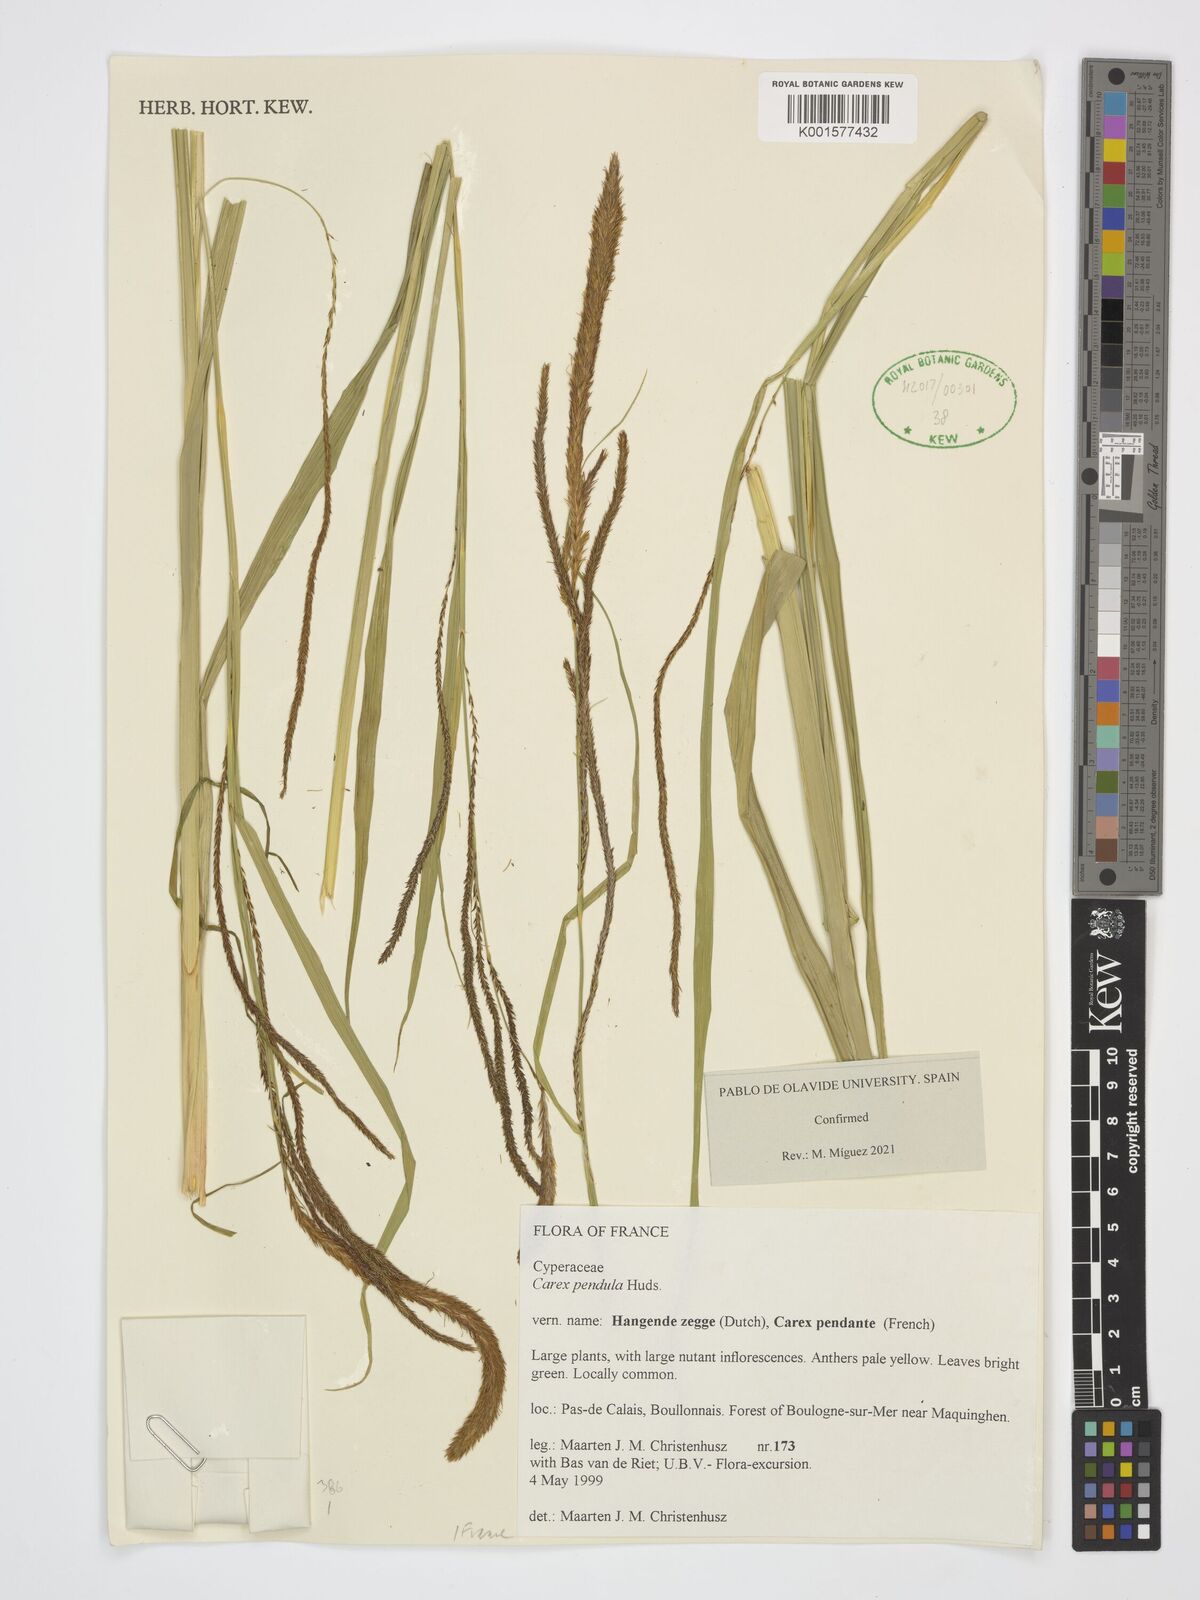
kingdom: Plantae
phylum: Tracheophyta
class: Liliopsida
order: Poales
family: Cyperaceae
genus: Carex
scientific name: Carex pendula
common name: Pendulous sedge
